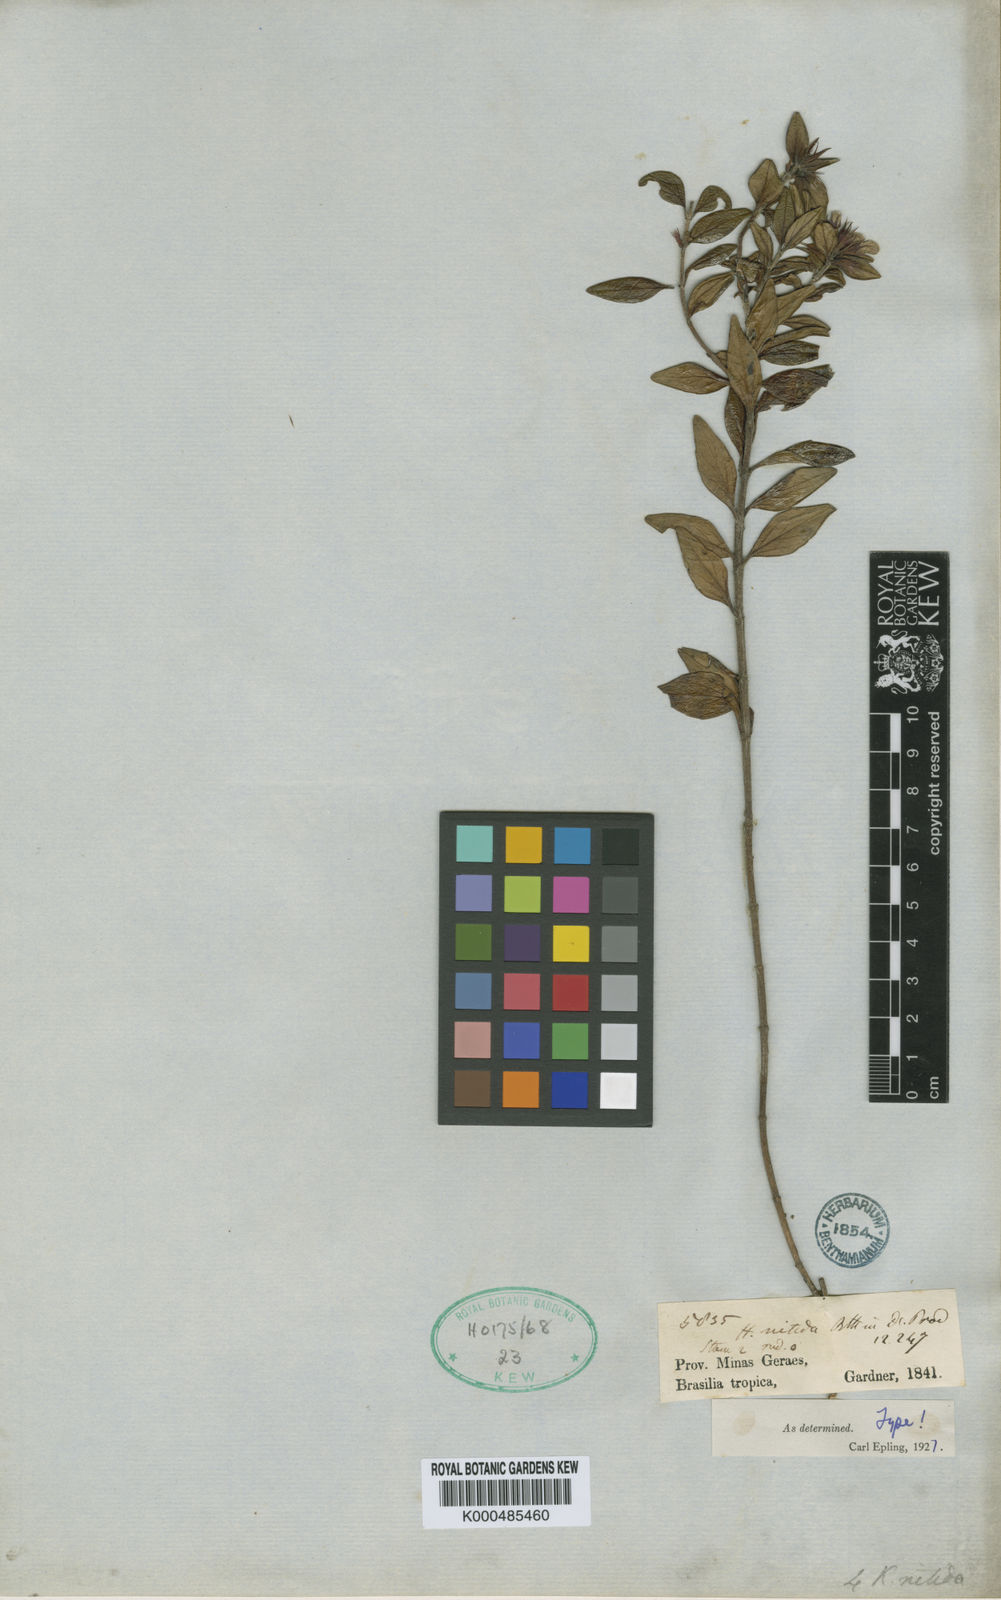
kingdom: Plantae
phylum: Tracheophyta
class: Magnoliopsida
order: Lamiales
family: Lamiaceae
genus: Hesperozygis
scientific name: Hesperozygis nitida
